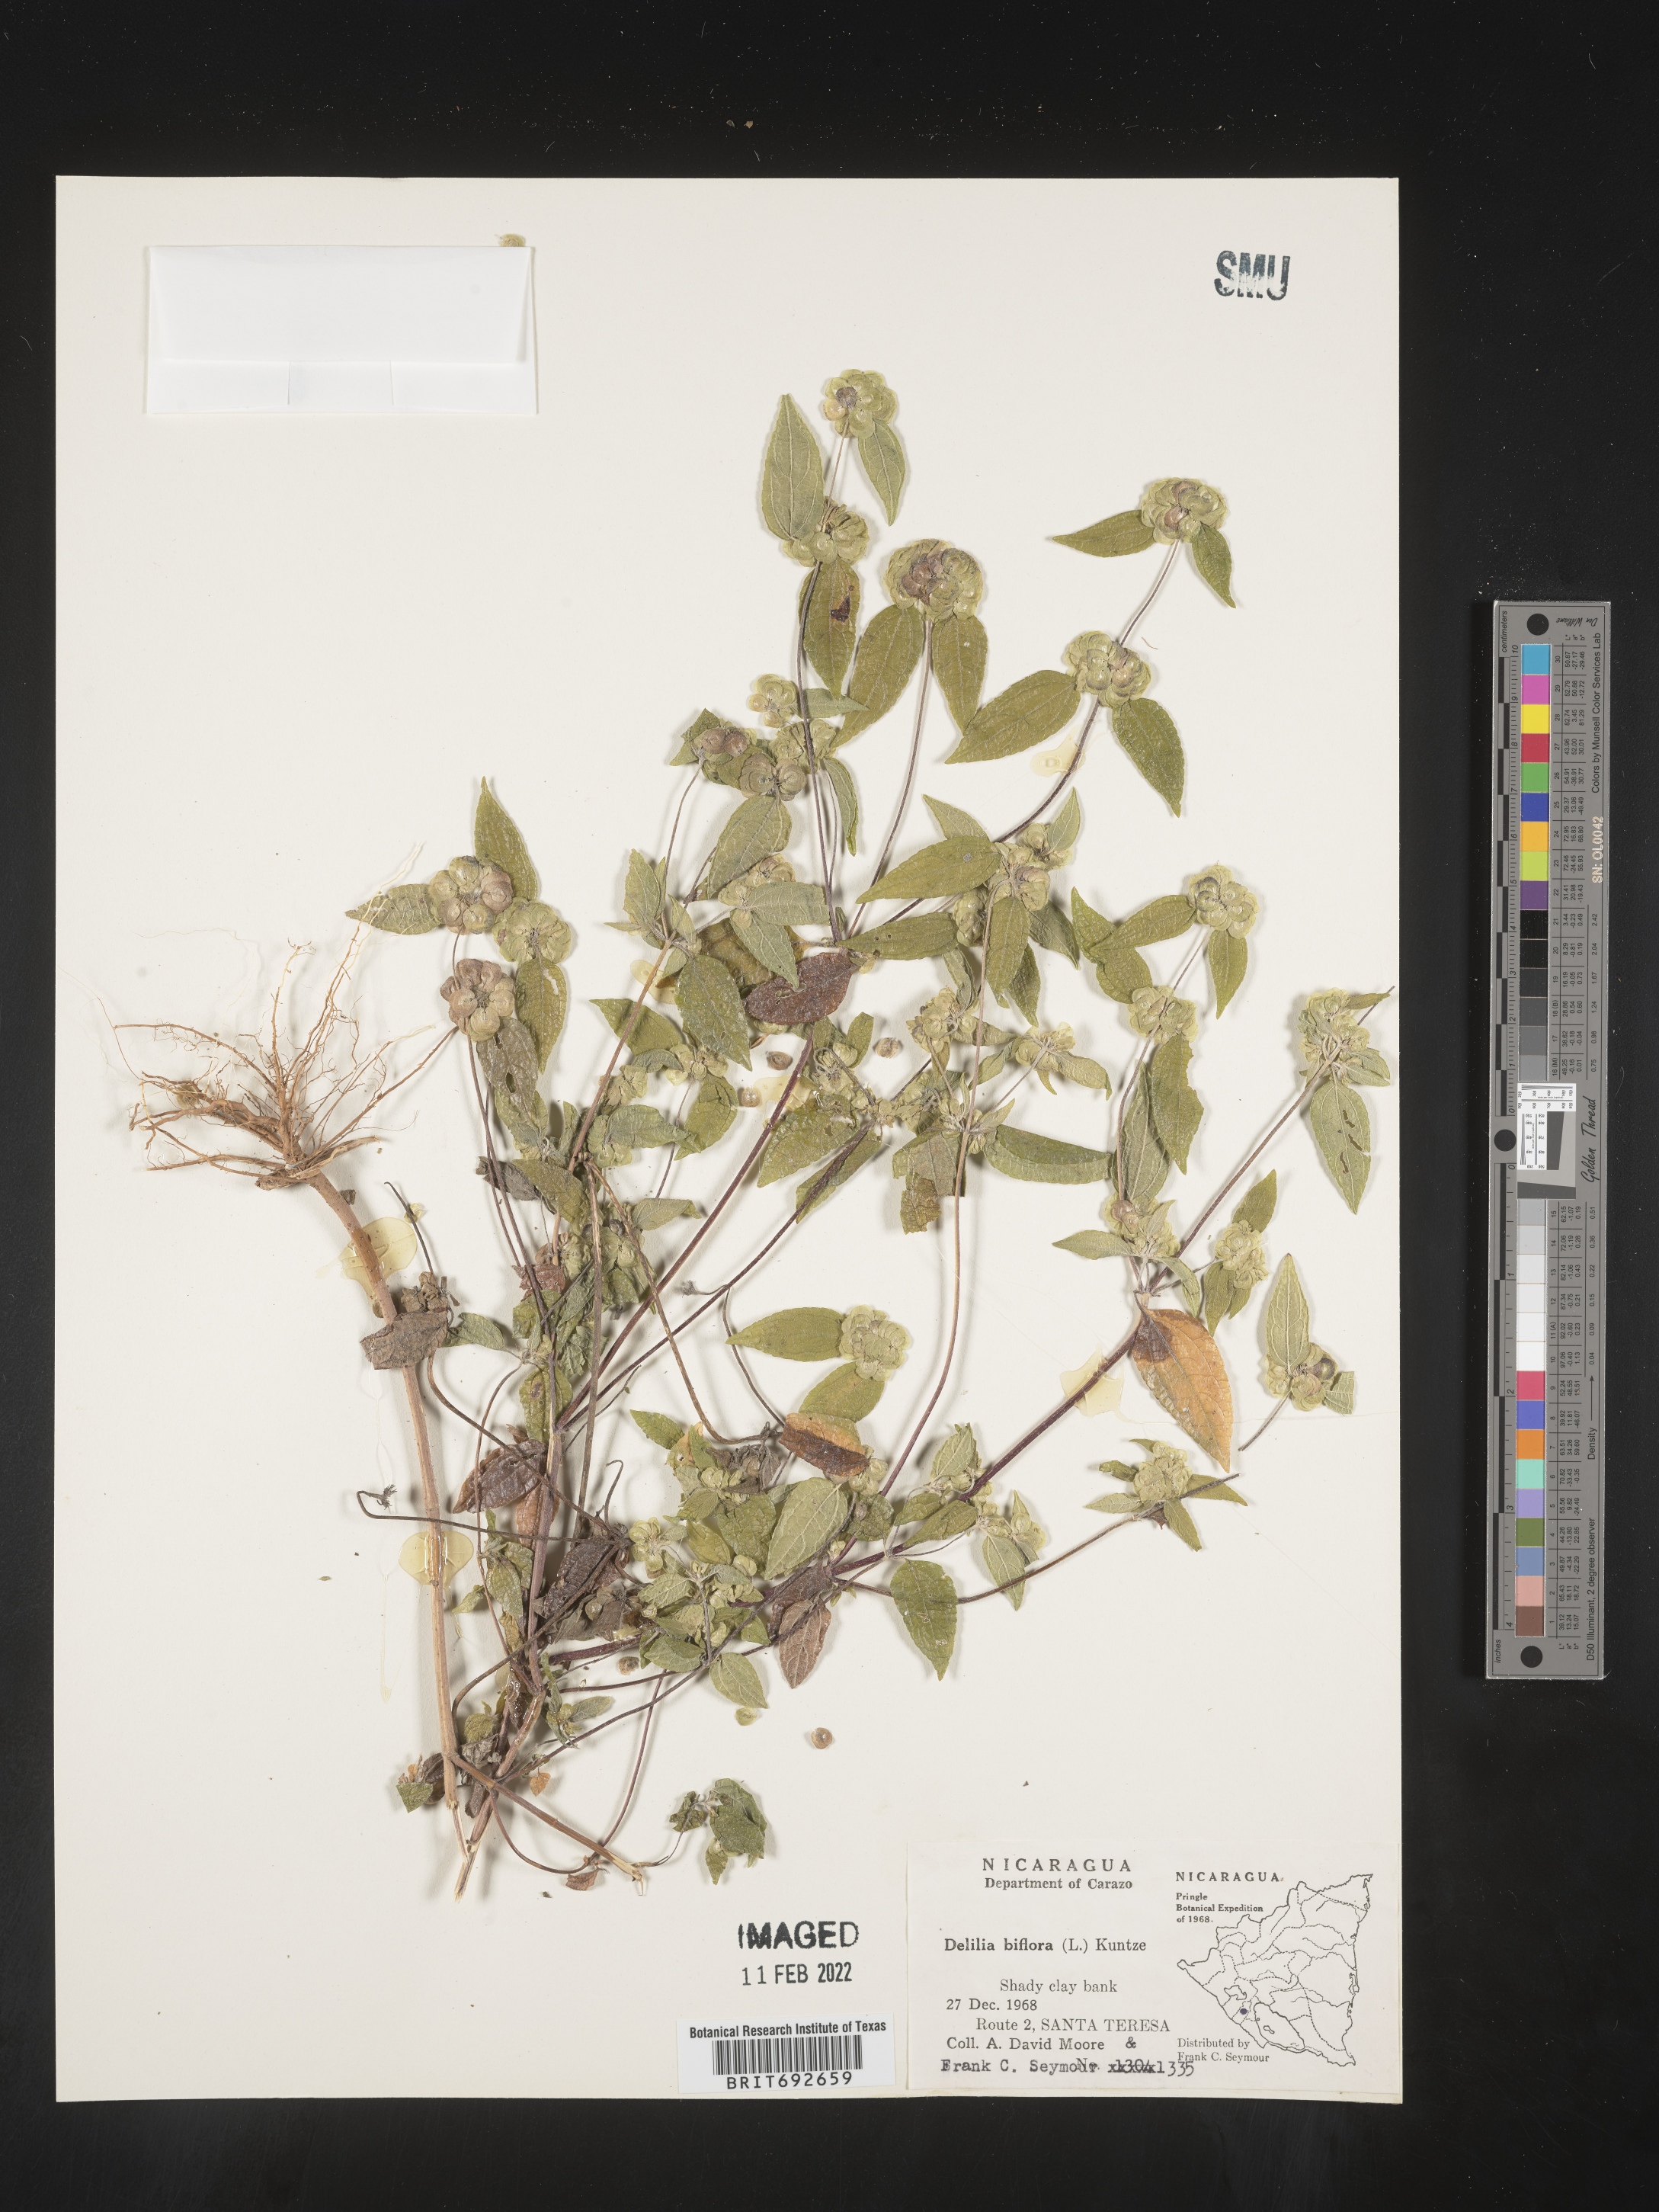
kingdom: Plantae
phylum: Tracheophyta
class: Magnoliopsida
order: Asterales
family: Asteraceae
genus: Delilia
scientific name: Delilia
